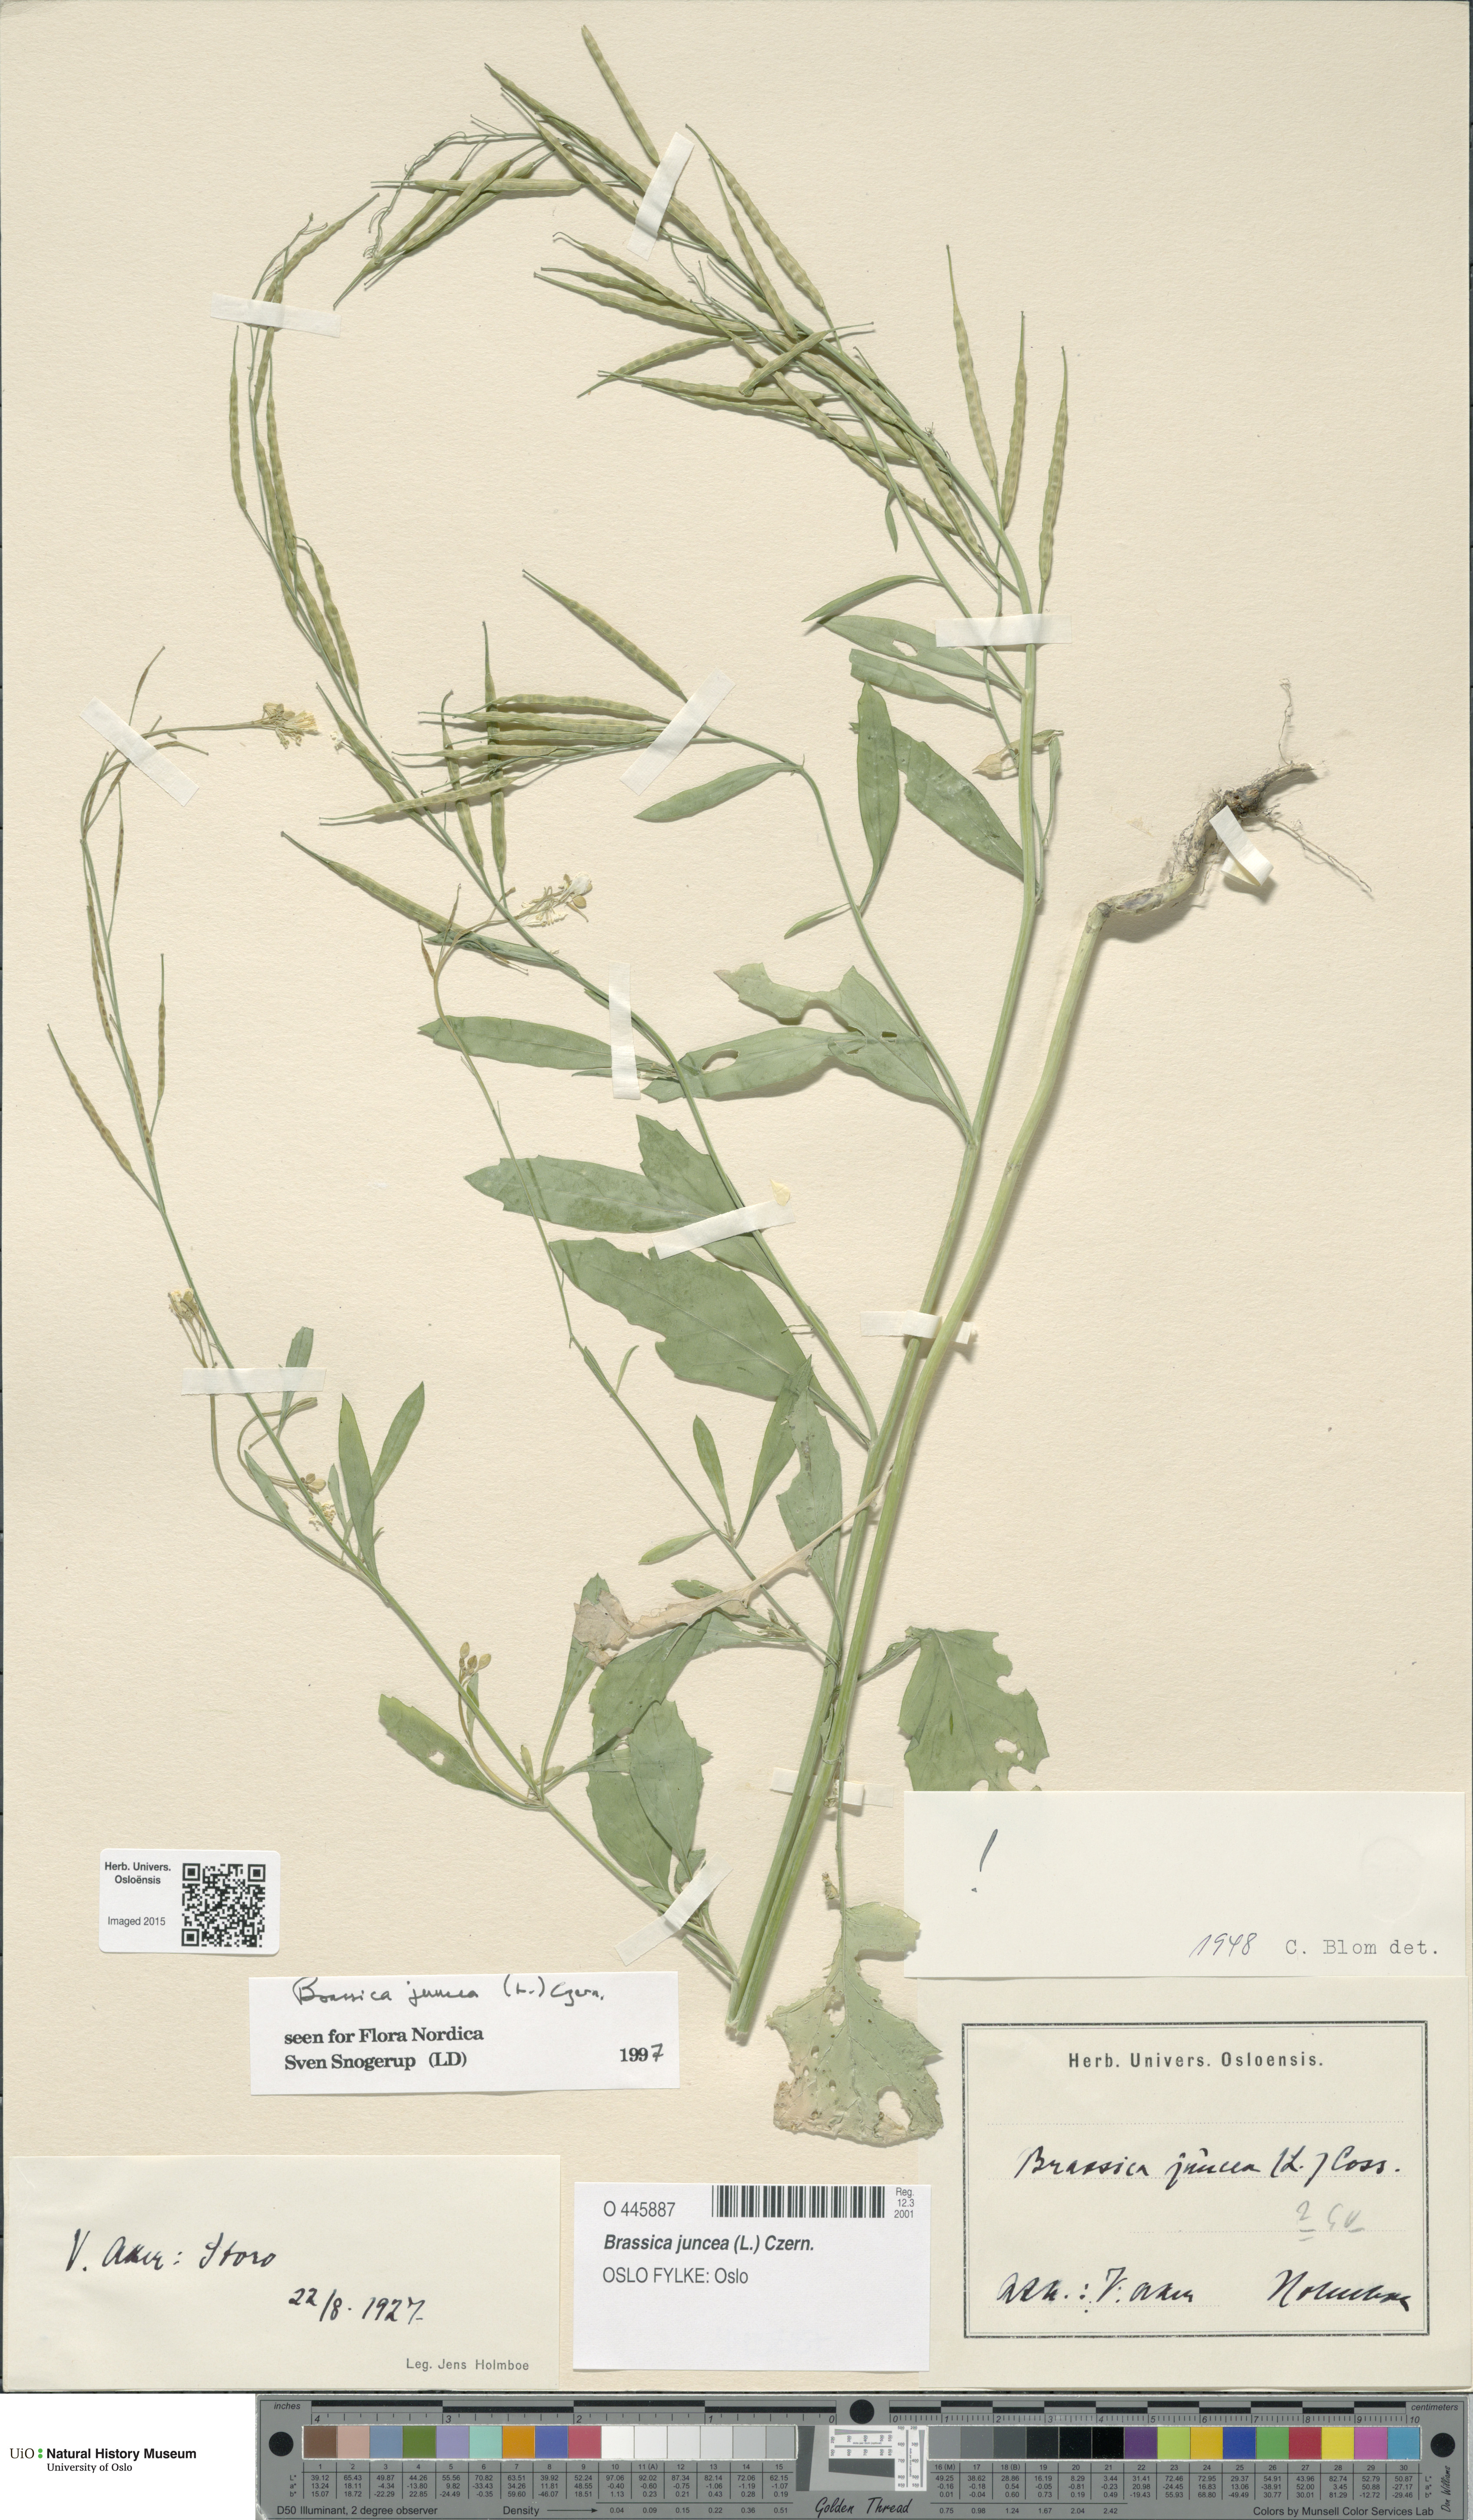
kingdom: Plantae
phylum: Tracheophyta
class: Magnoliopsida
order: Brassicales
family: Brassicaceae
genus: Brassica
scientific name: Brassica juncea
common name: Brown mustard
